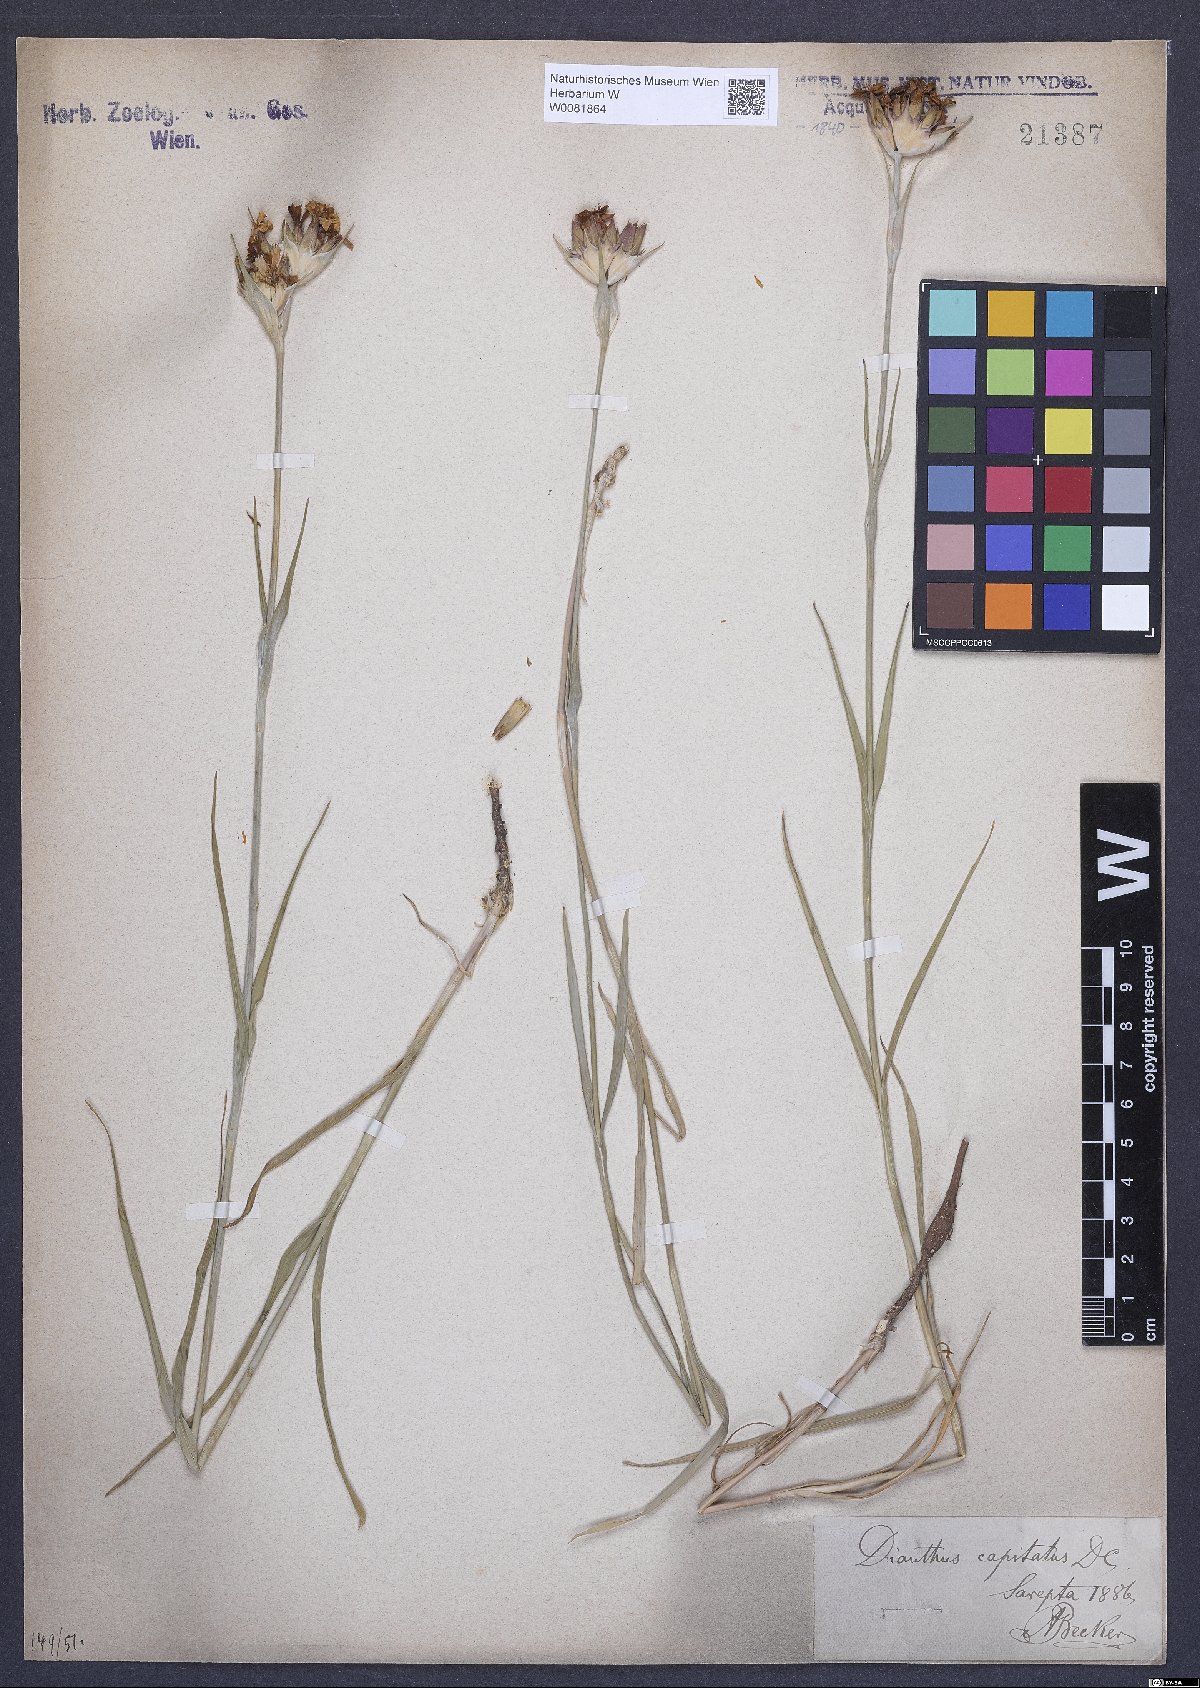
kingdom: Plantae
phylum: Tracheophyta
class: Magnoliopsida
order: Caryophyllales
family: Caryophyllaceae
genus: Dianthus
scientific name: Dianthus capitatus
